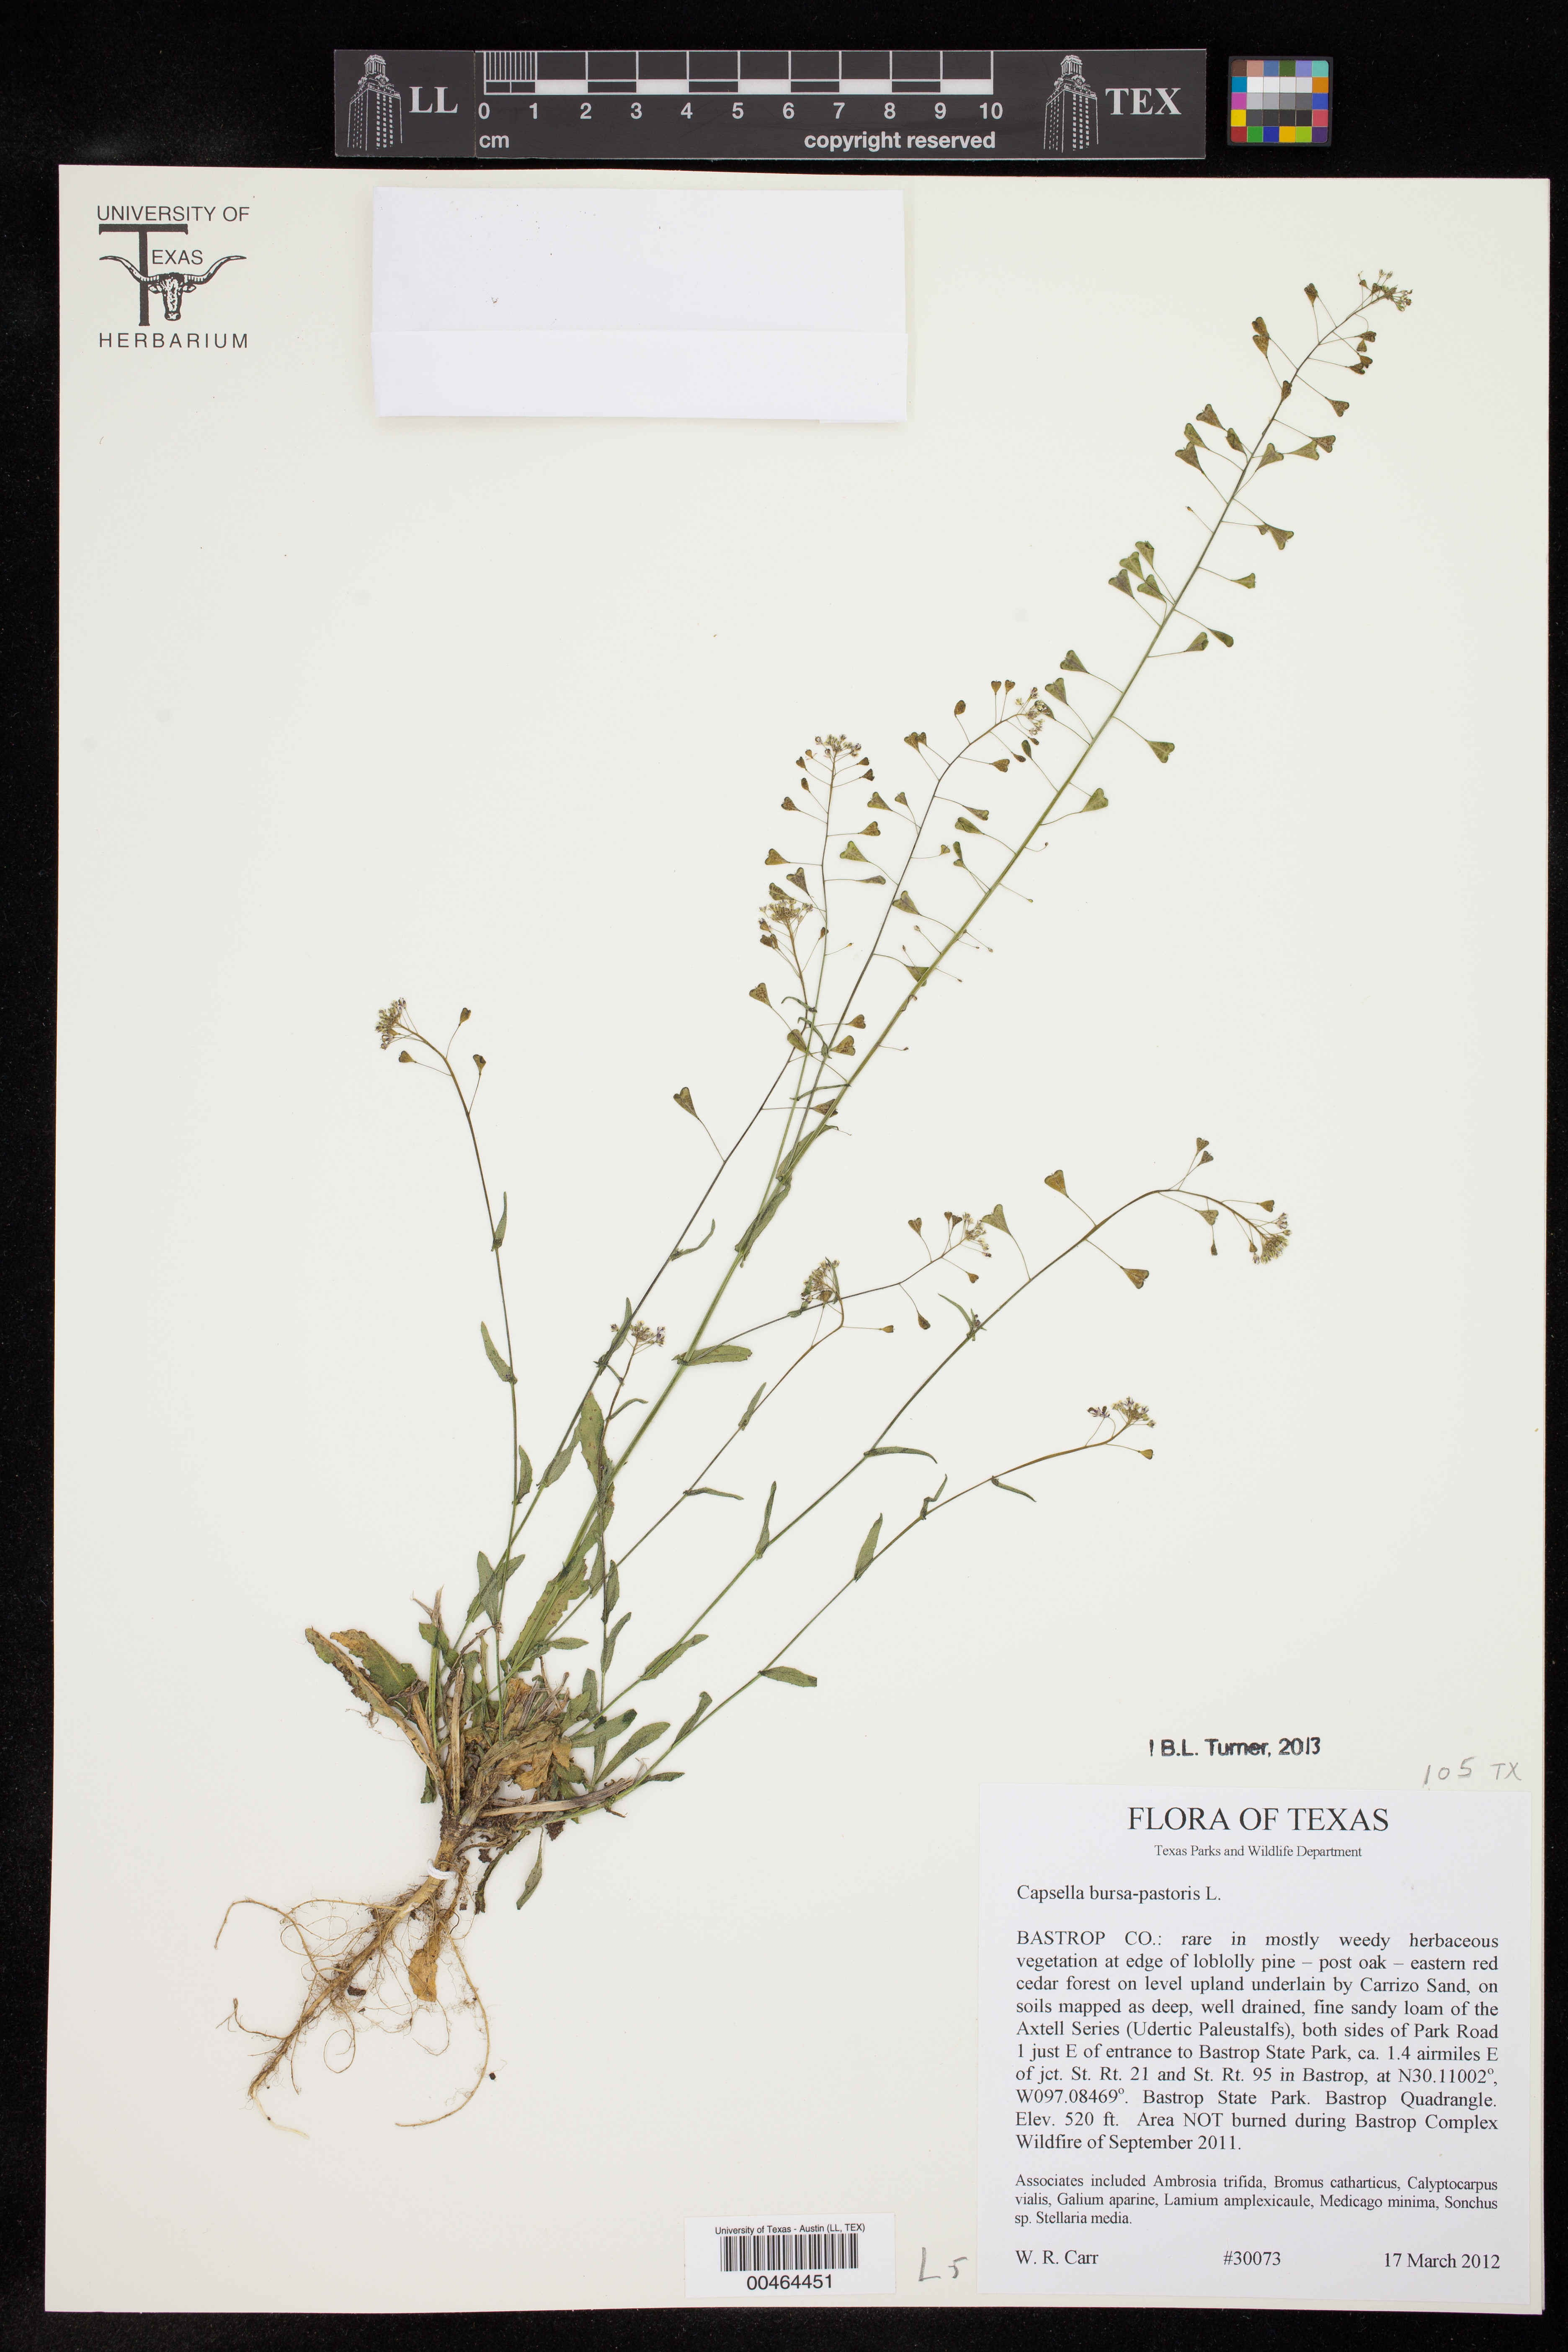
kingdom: Plantae
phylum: Tracheophyta
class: Magnoliopsida
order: Brassicales
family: Brassicaceae
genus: Capsella
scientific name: Capsella bursa-pastoris
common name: Shepherd's purse
